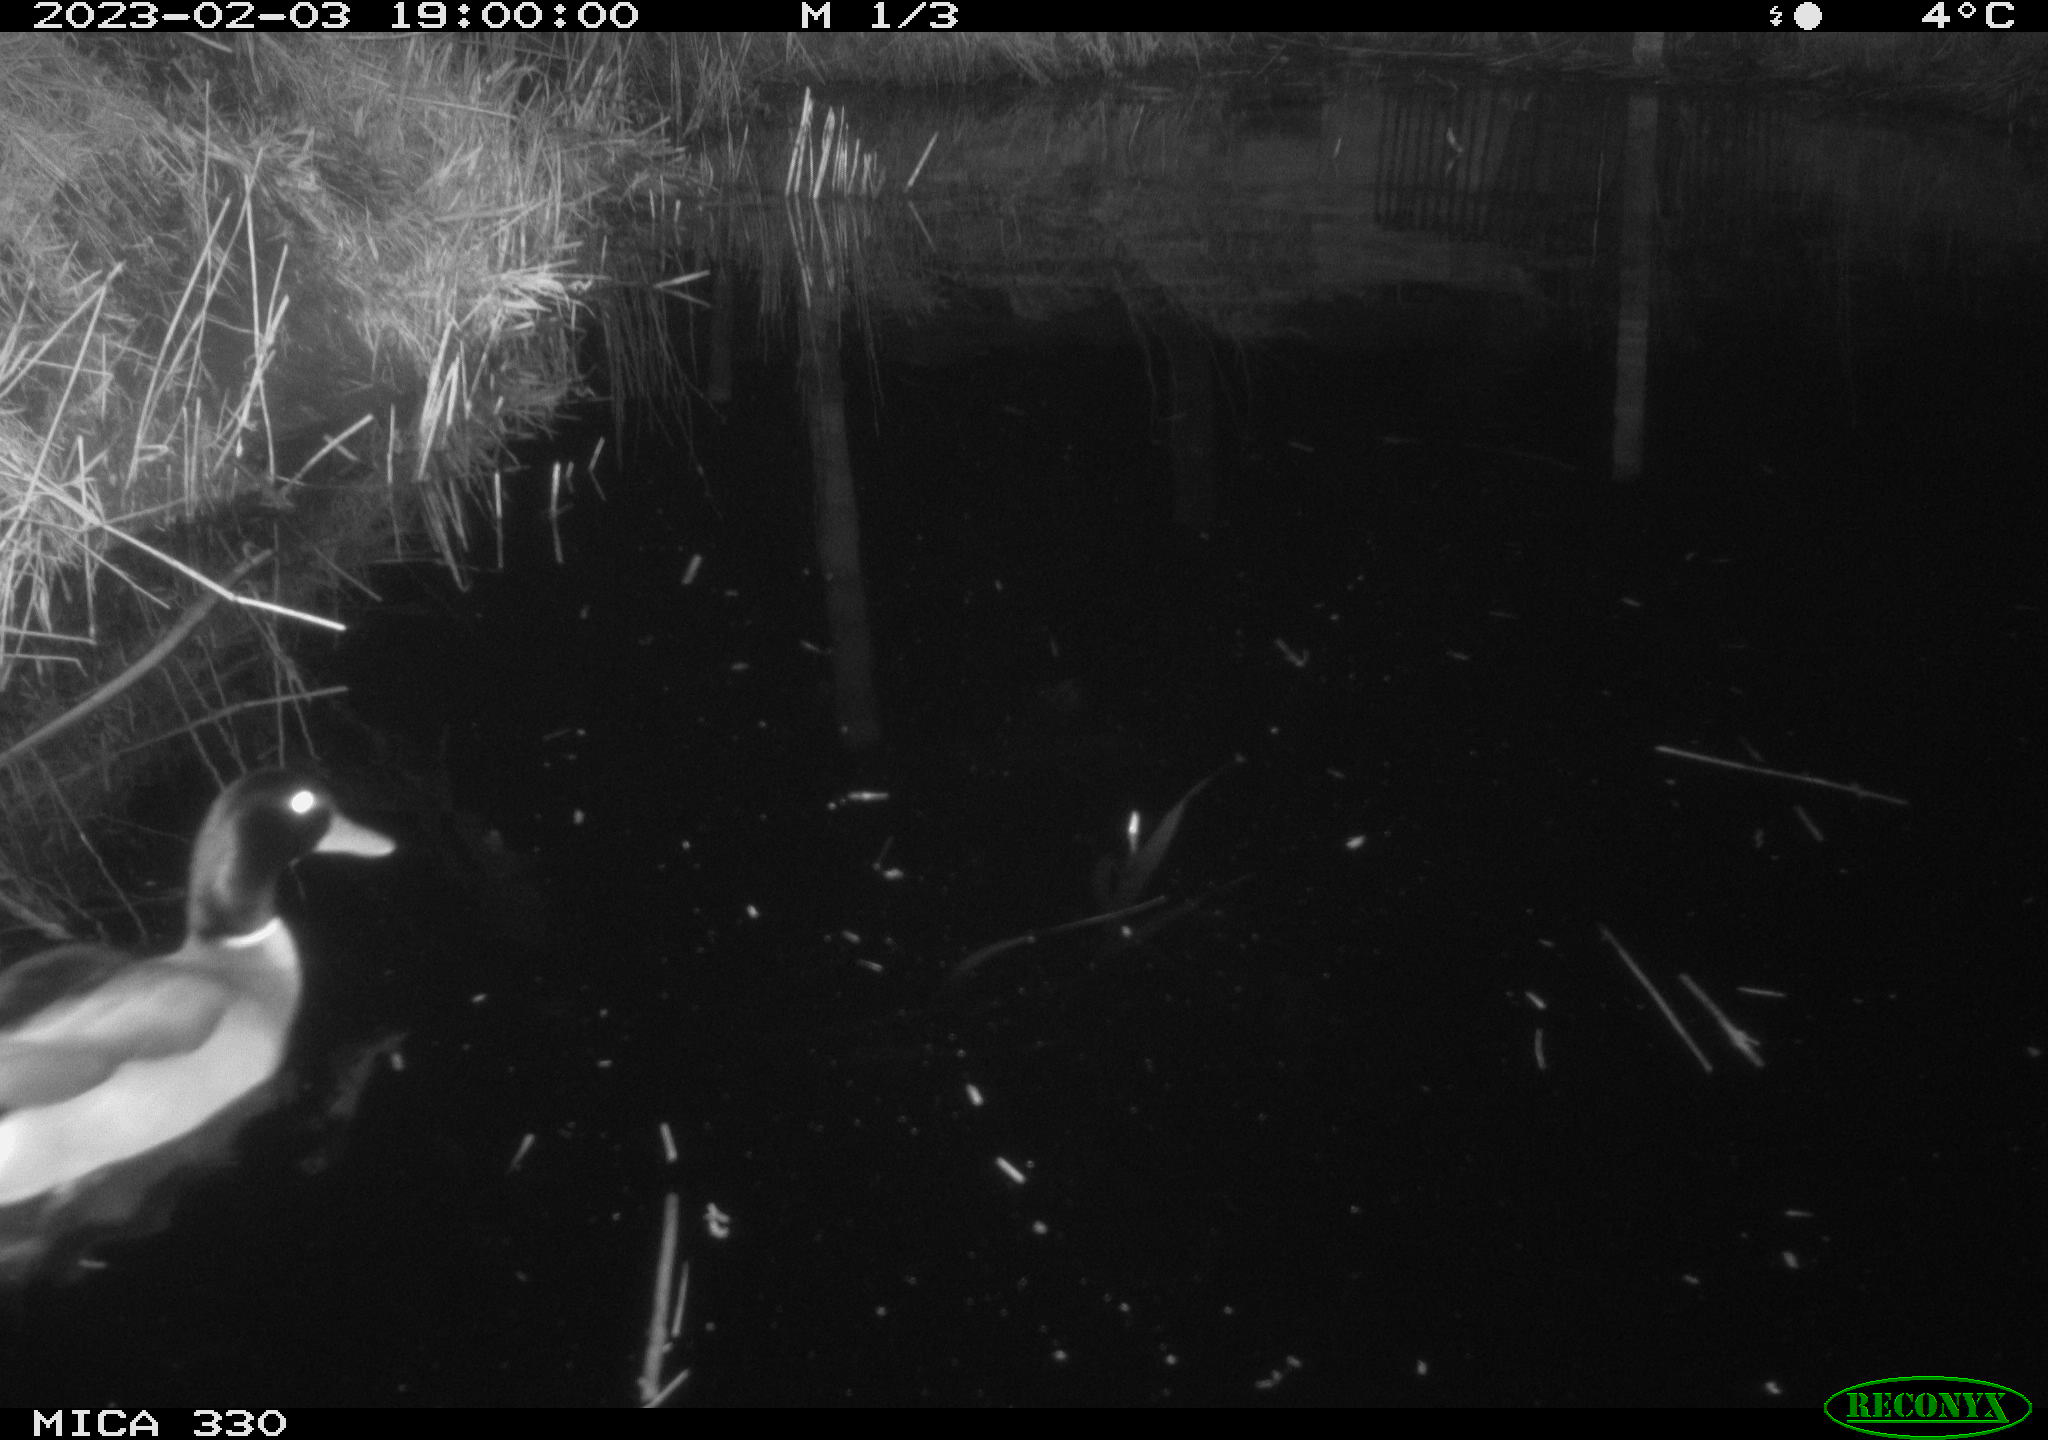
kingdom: Animalia
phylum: Chordata
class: Aves
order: Anseriformes
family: Anatidae
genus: Anas
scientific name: Anas
